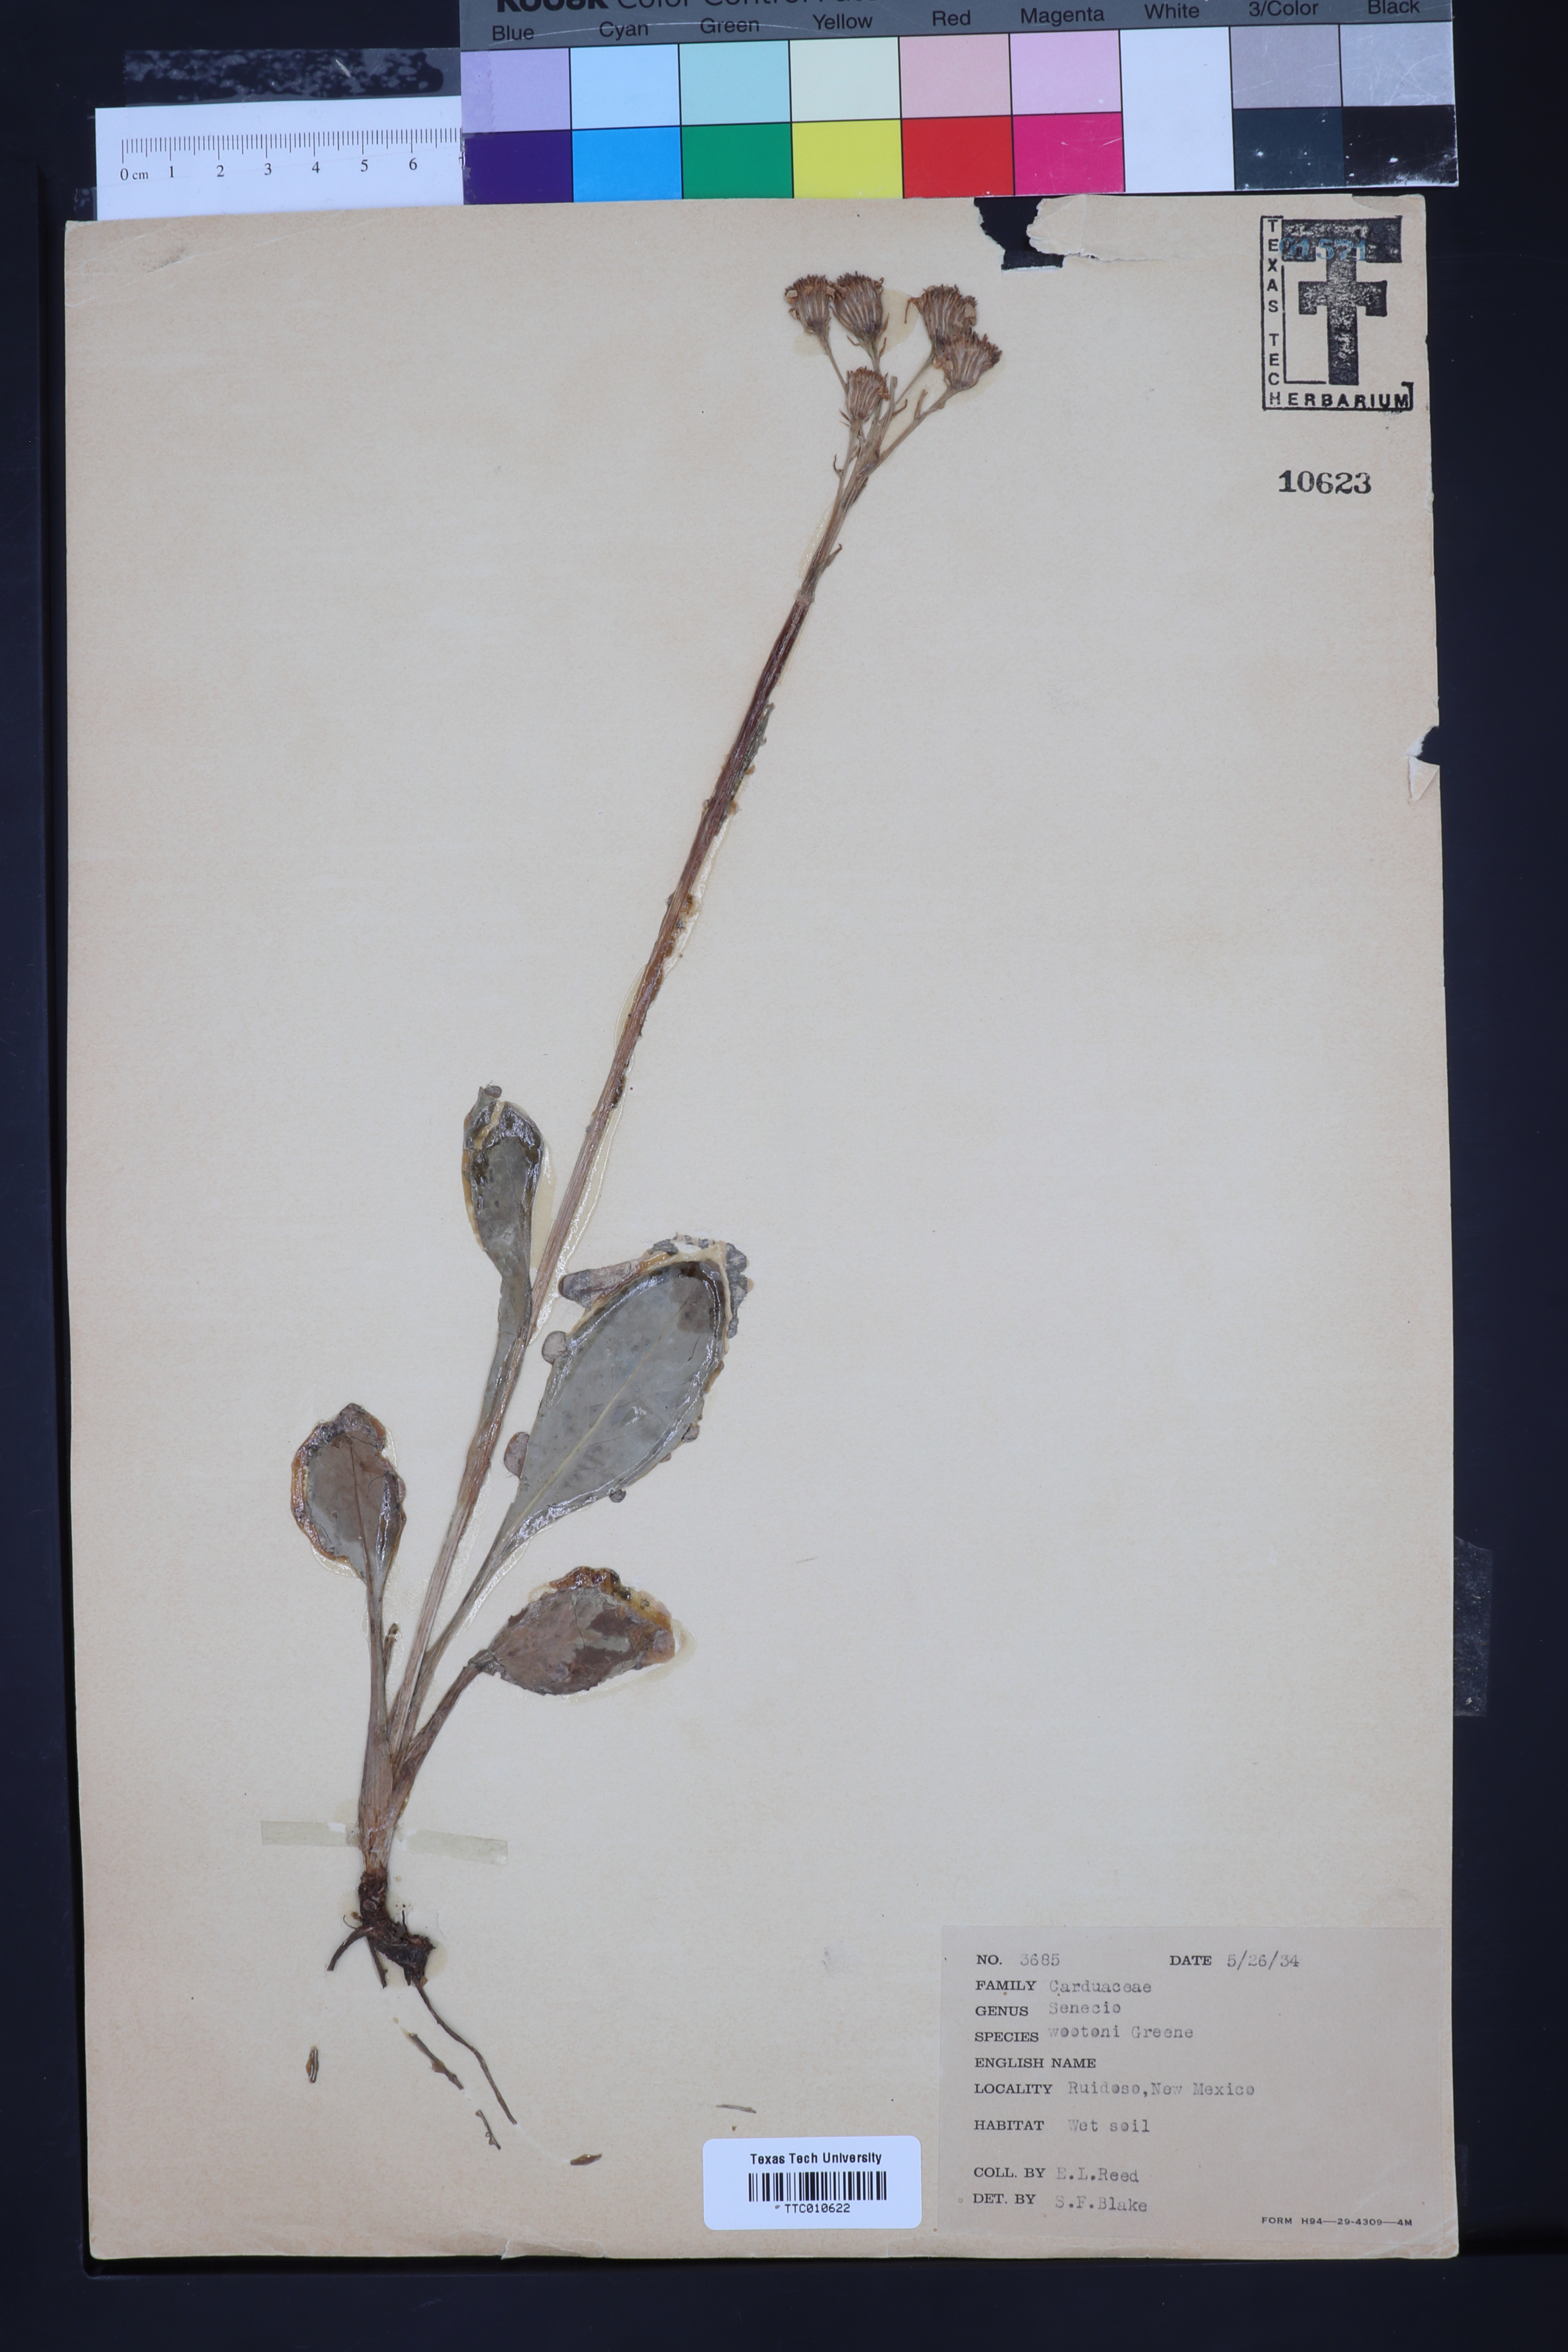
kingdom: Plantae
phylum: Tracheophyta
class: Magnoliopsida
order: Asterales
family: Asteraceae
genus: Senecio
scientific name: Senecio wootonii
